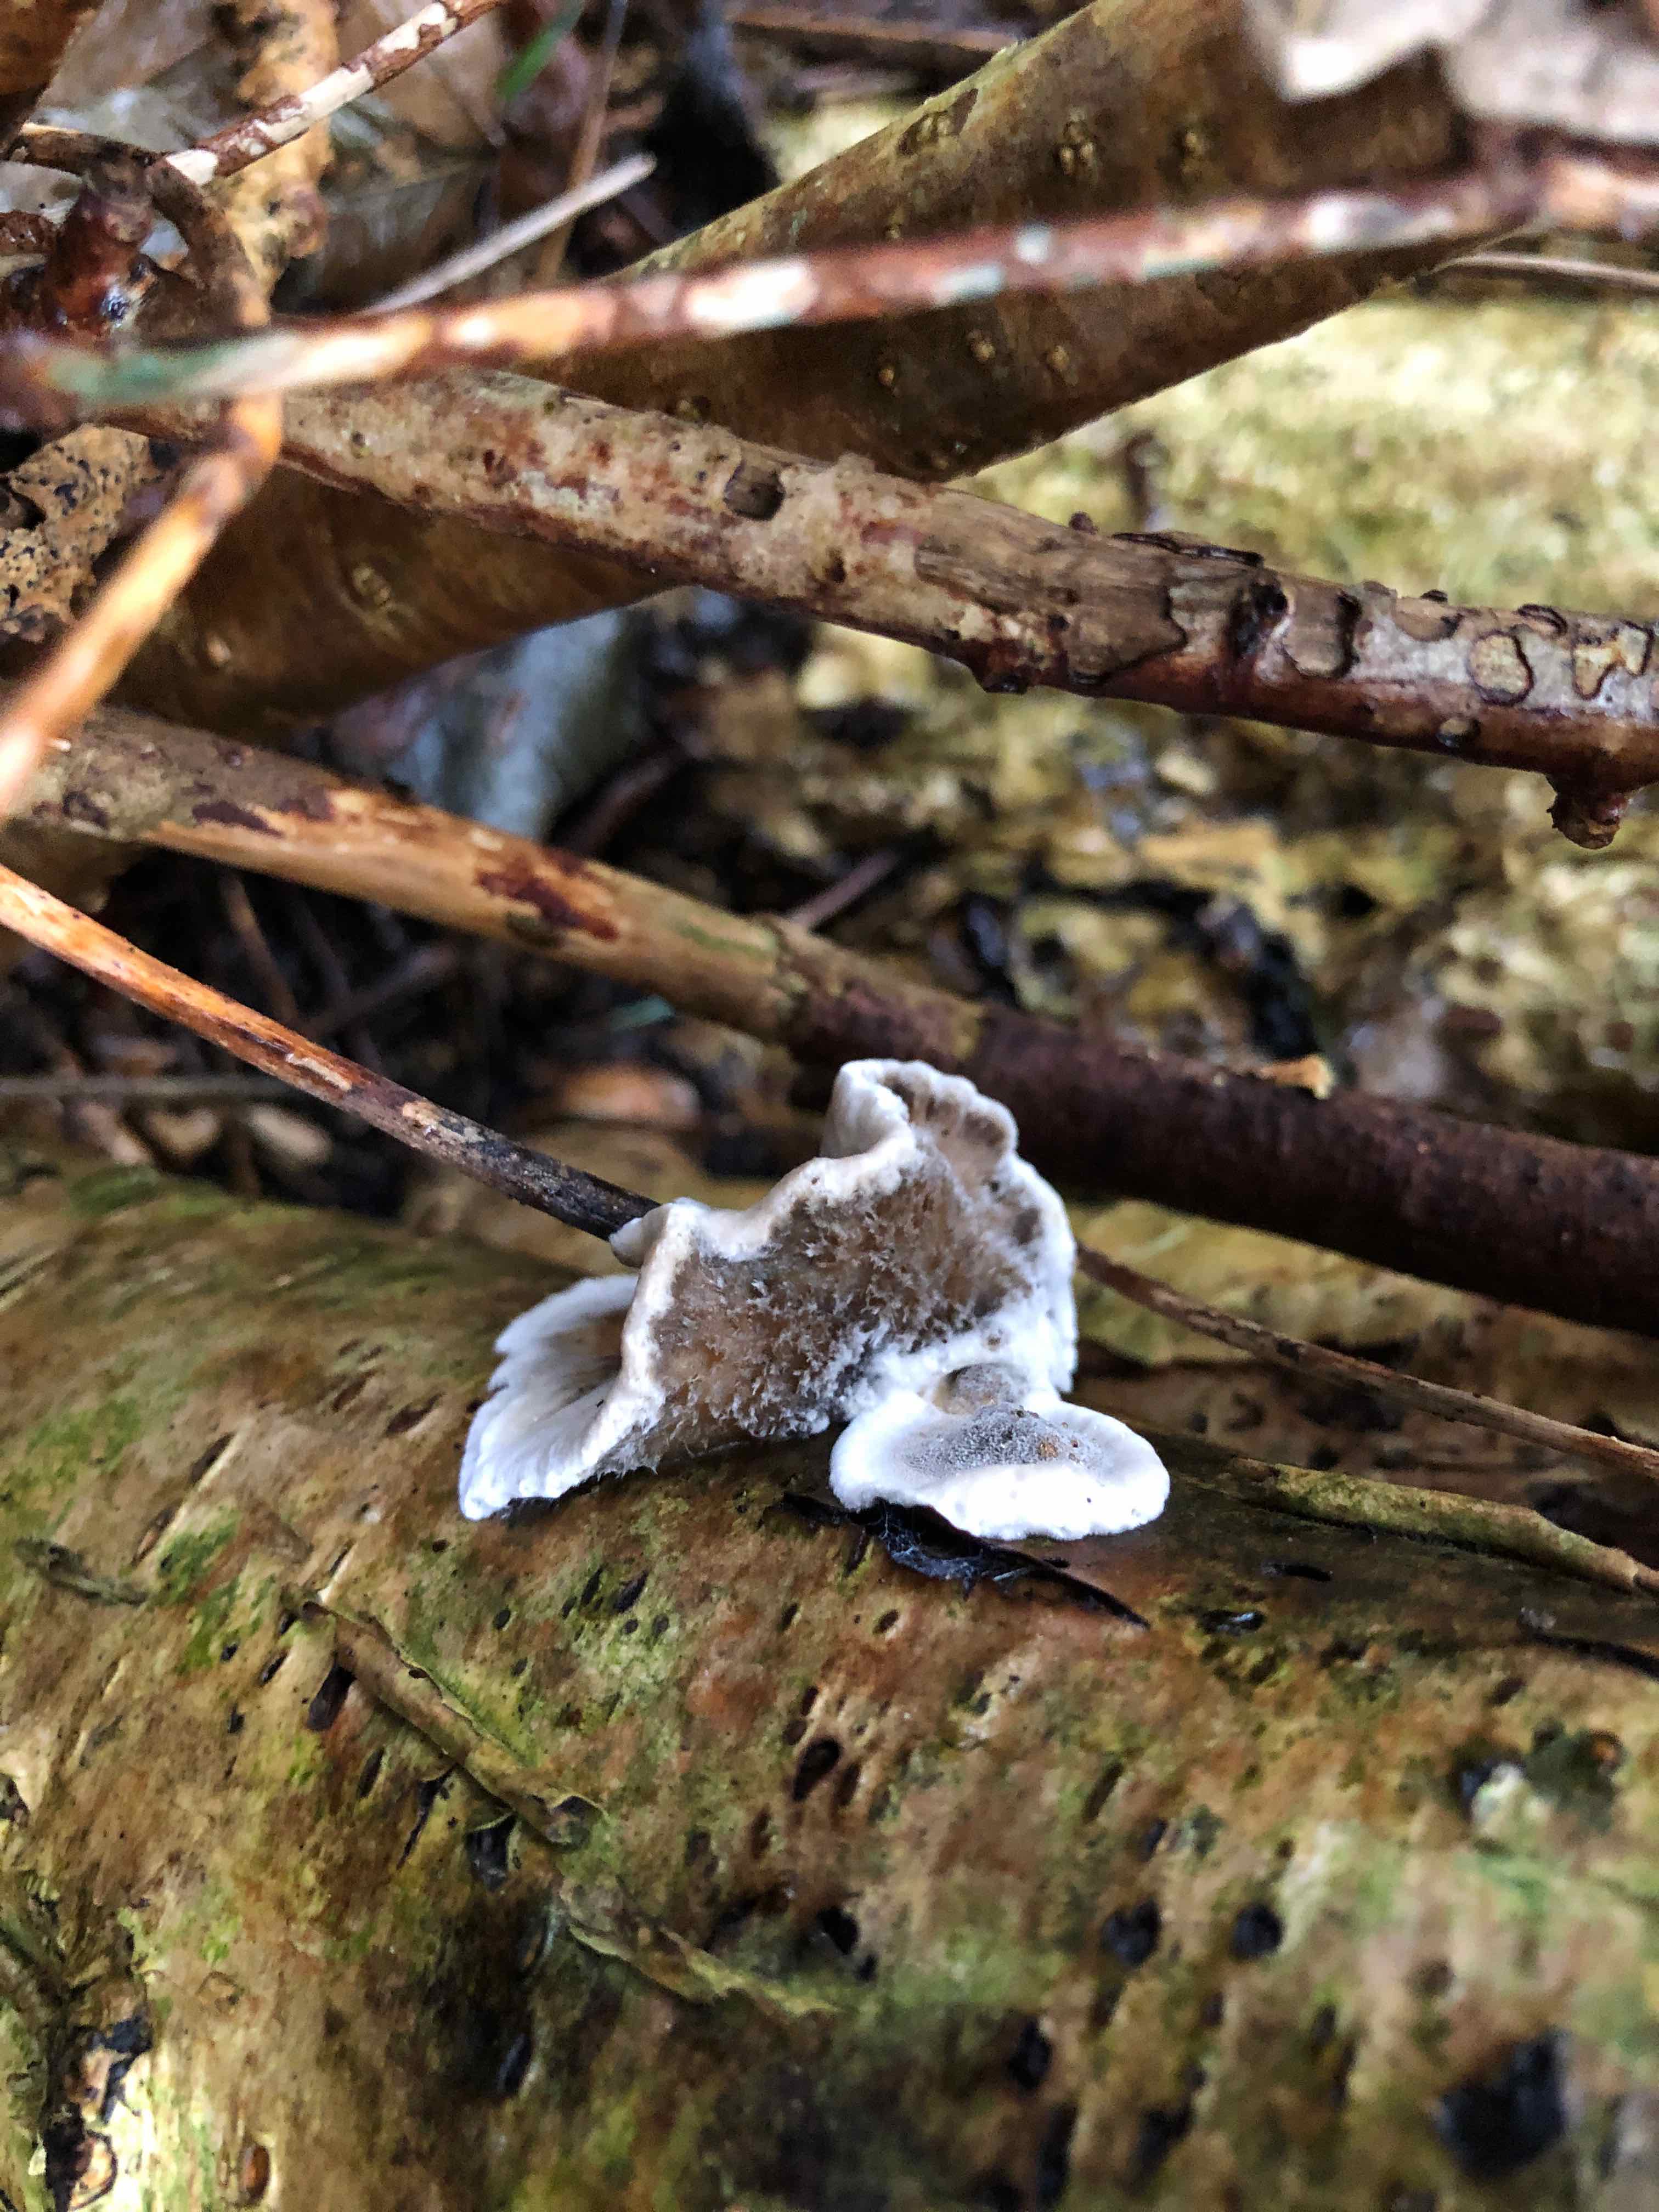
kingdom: Fungi
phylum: Basidiomycota
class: Agaricomycetes
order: Polyporales
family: Phanerochaetaceae
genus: Bjerkandera
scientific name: Bjerkandera adusta
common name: sveden sodporesvamp
